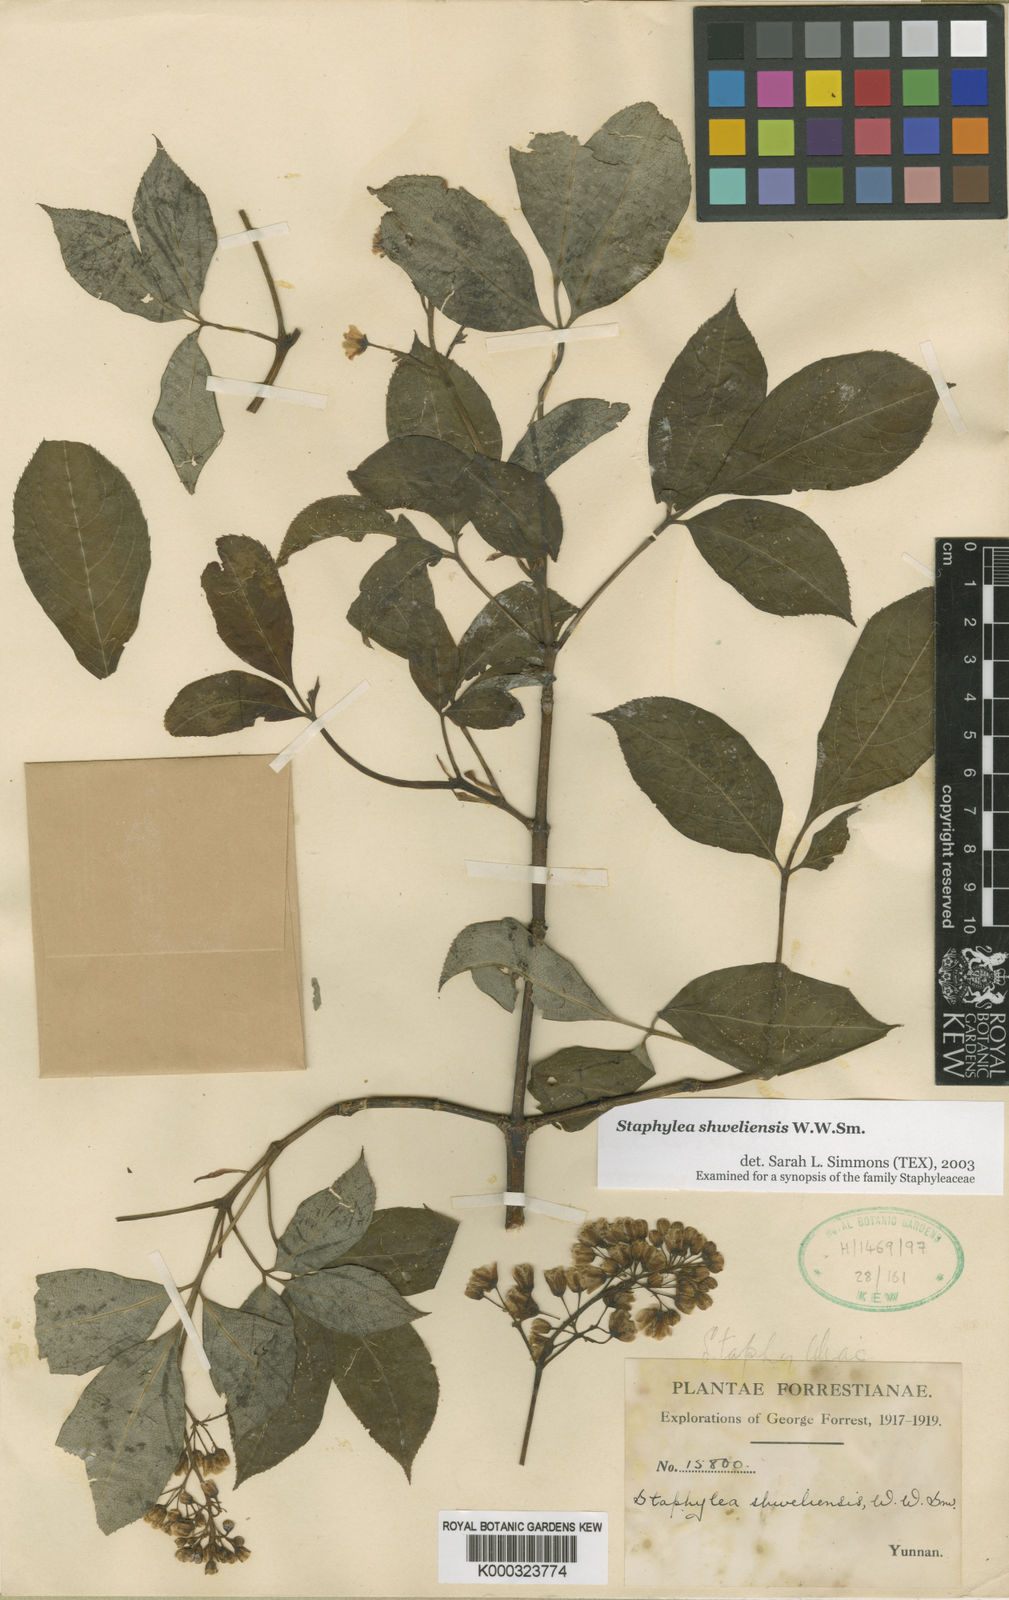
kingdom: Plantae
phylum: Tracheophyta
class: Magnoliopsida
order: Crossosomatales
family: Staphyleaceae
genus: Staphylea
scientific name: Staphylea shweliensis
